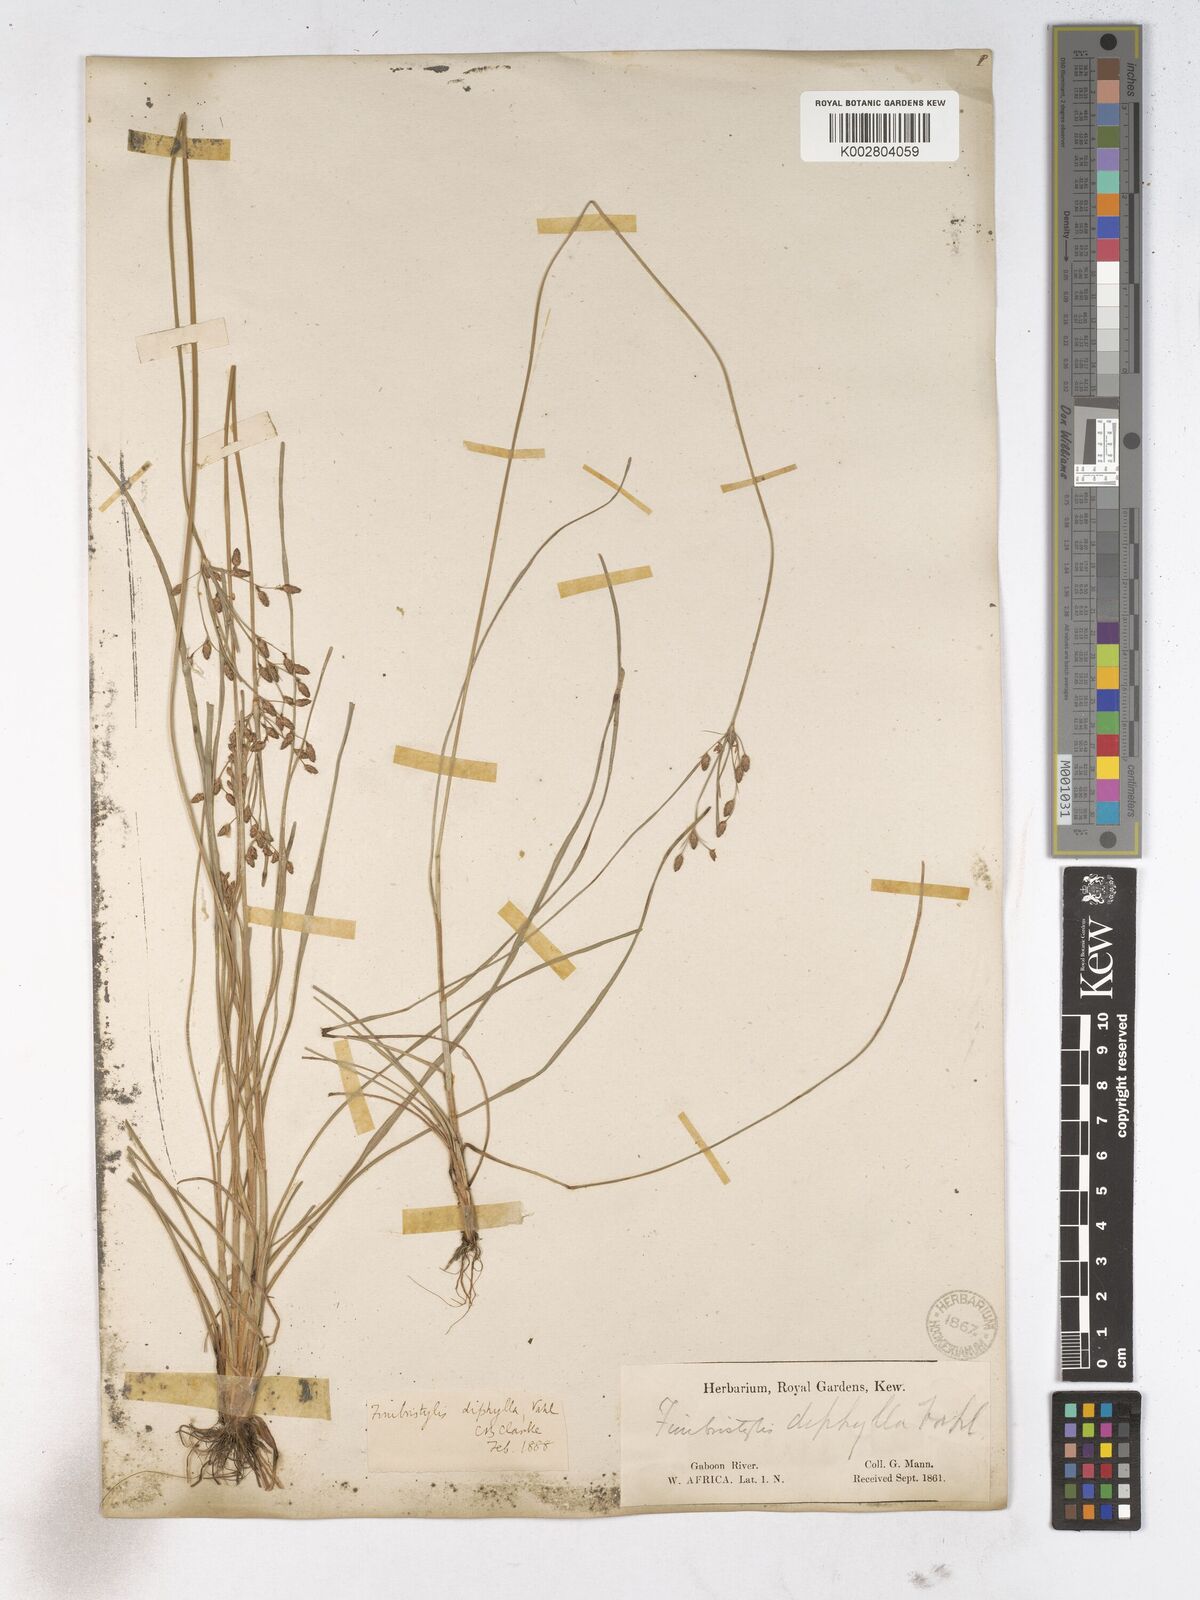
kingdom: Plantae
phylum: Tracheophyta
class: Liliopsida
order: Poales
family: Cyperaceae
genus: Fimbristylis
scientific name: Fimbristylis dichotoma
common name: Forked fimbry
